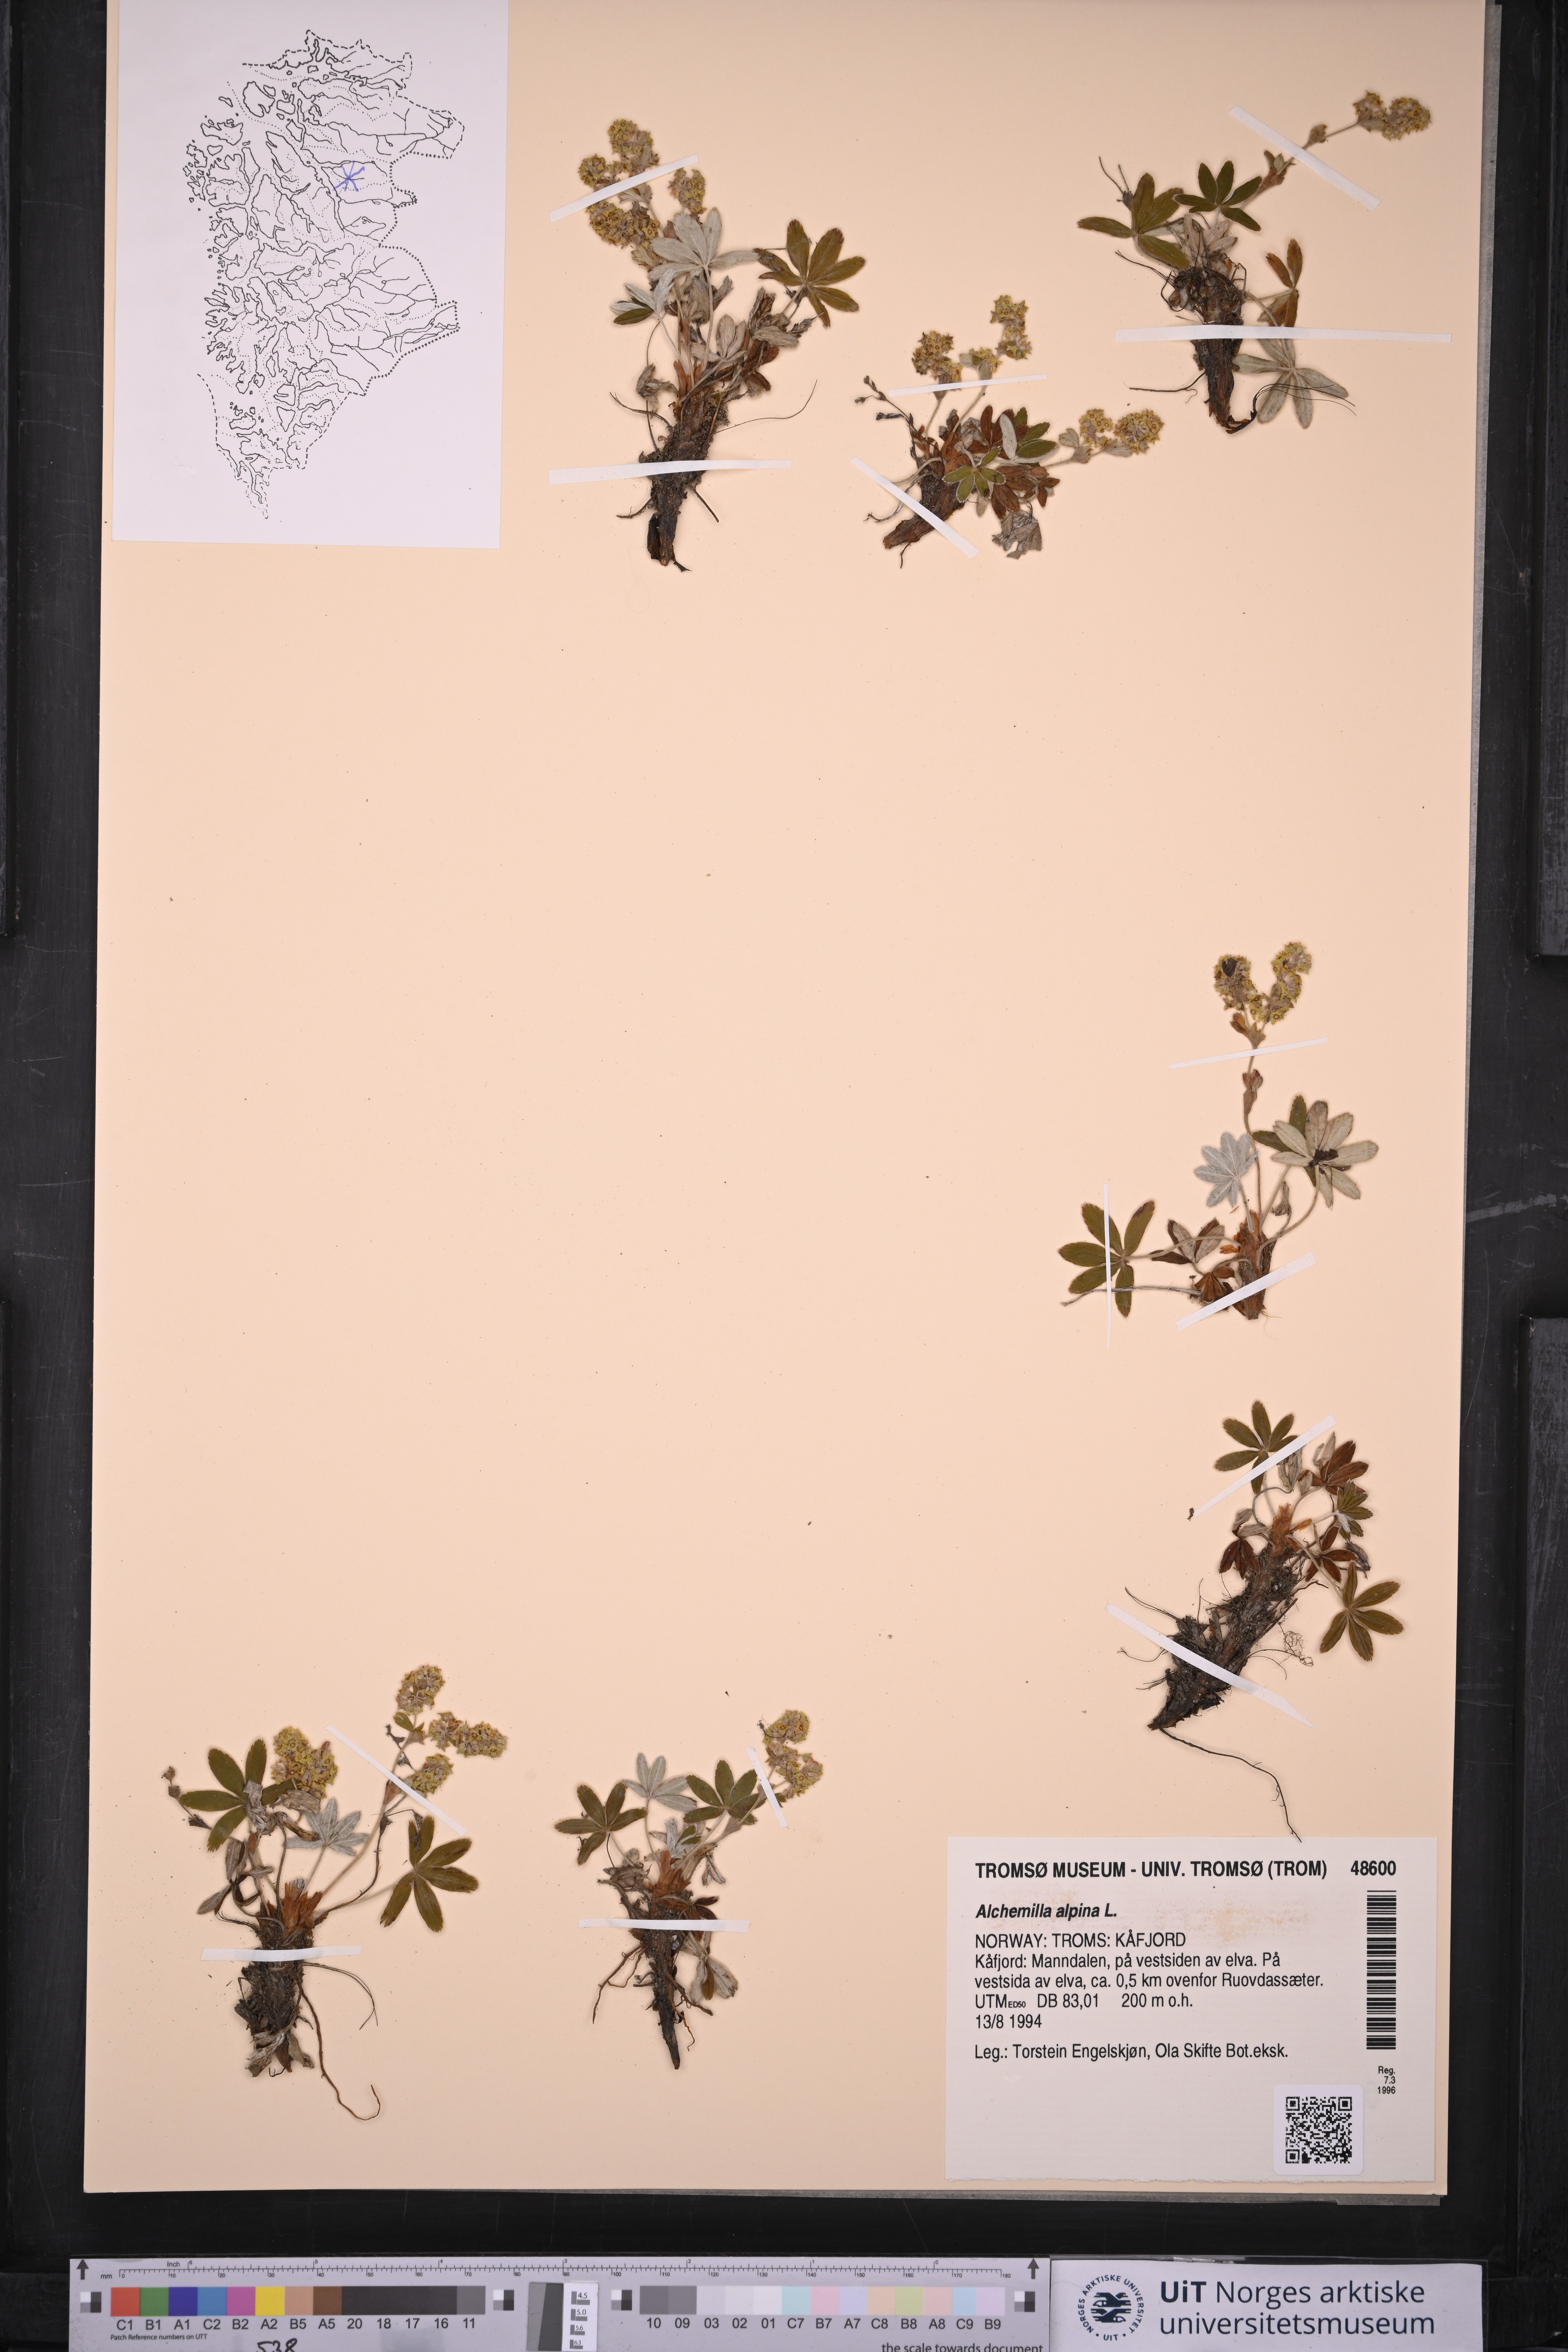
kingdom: Plantae
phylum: Tracheophyta
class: Magnoliopsida
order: Rosales
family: Rosaceae
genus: Alchemilla
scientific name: Alchemilla alpina
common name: Alpine lady's-mantle
